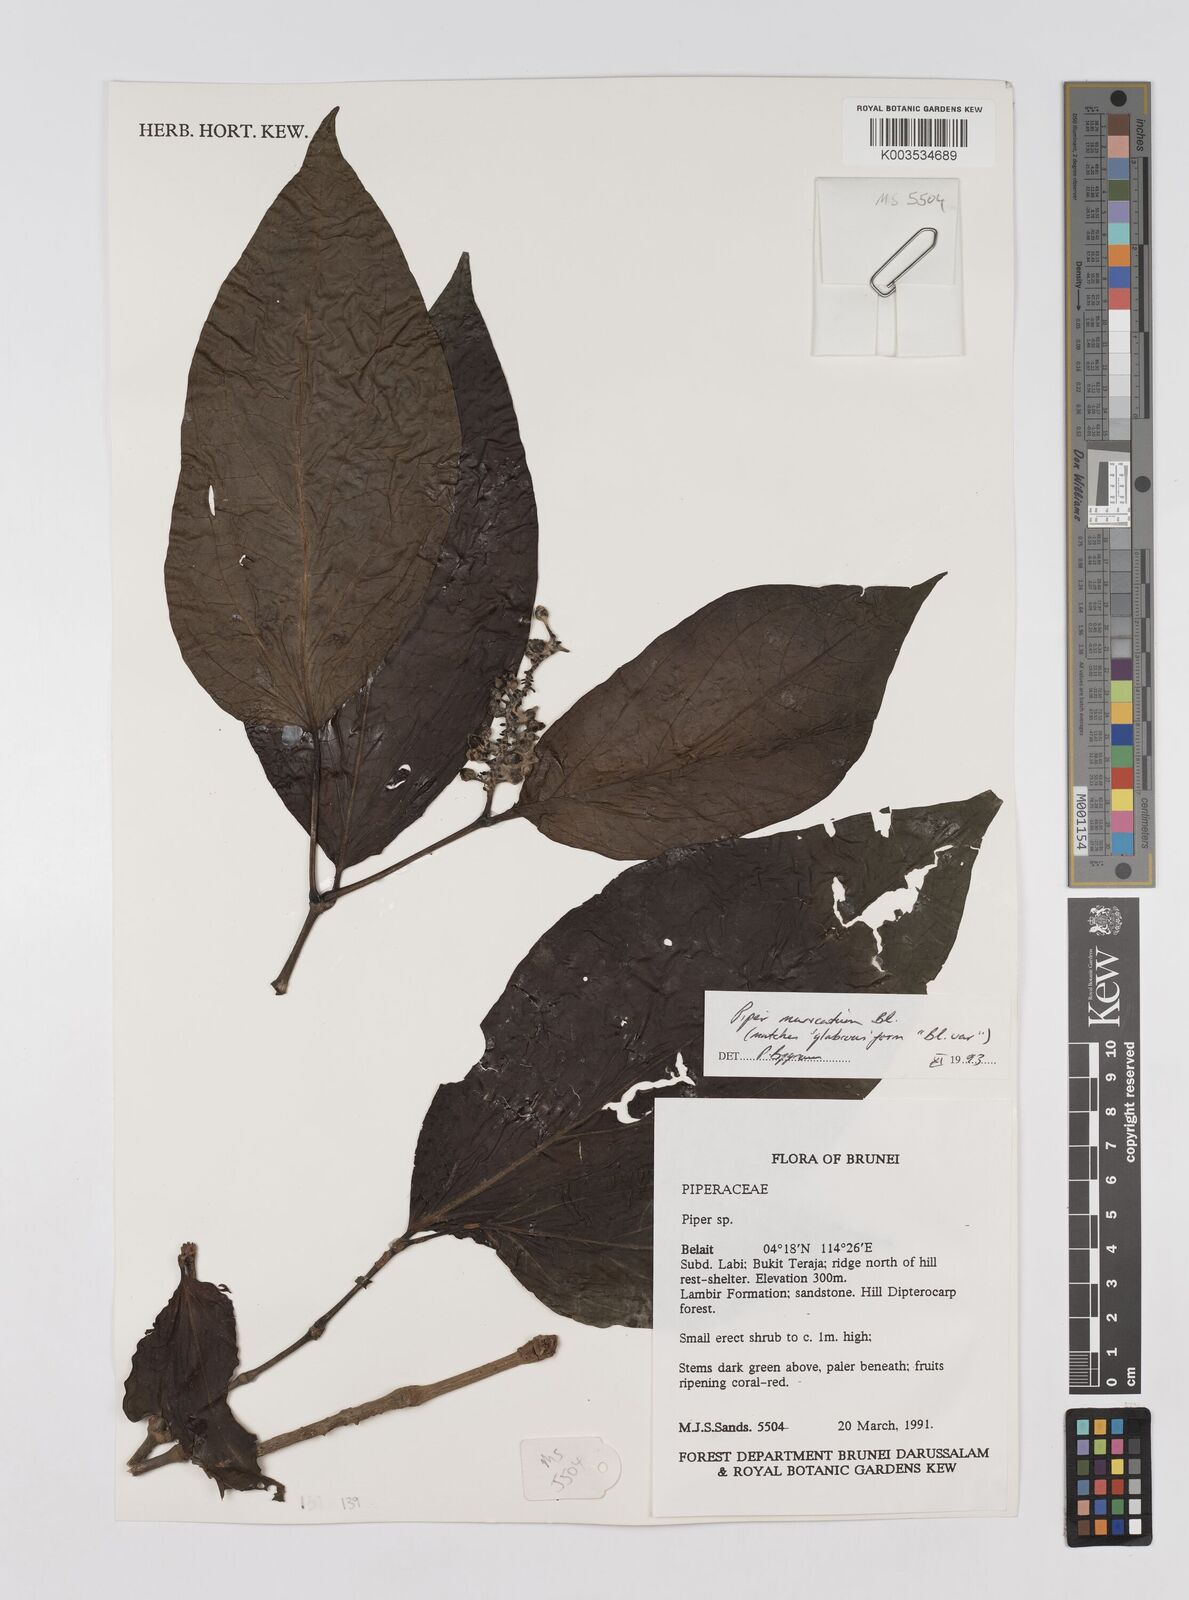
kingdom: Plantae
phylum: Tracheophyta
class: Magnoliopsida
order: Piperales
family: Piperaceae
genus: Piper
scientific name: Piper muricatum
